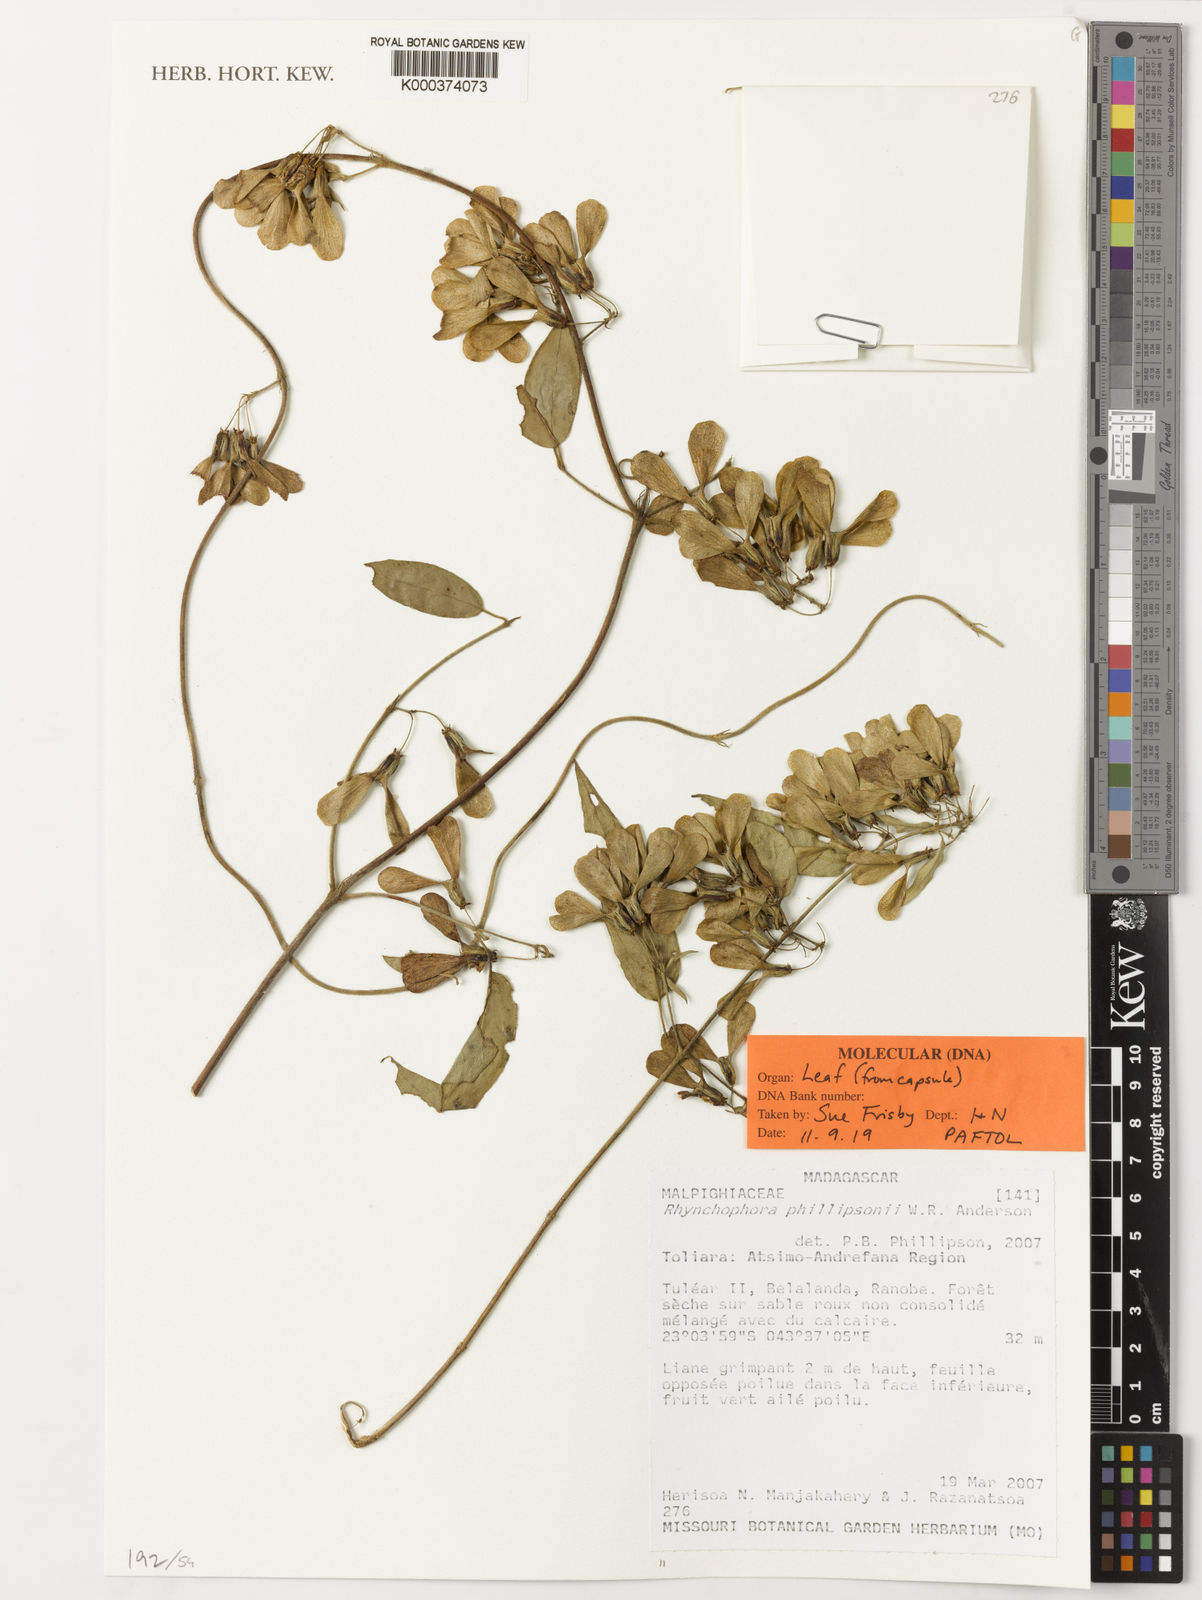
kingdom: Plantae
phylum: Tracheophyta
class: Magnoliopsida
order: Malpighiales
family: Malpighiaceae
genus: Rhynchophora
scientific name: Rhynchophora phillipsonii
